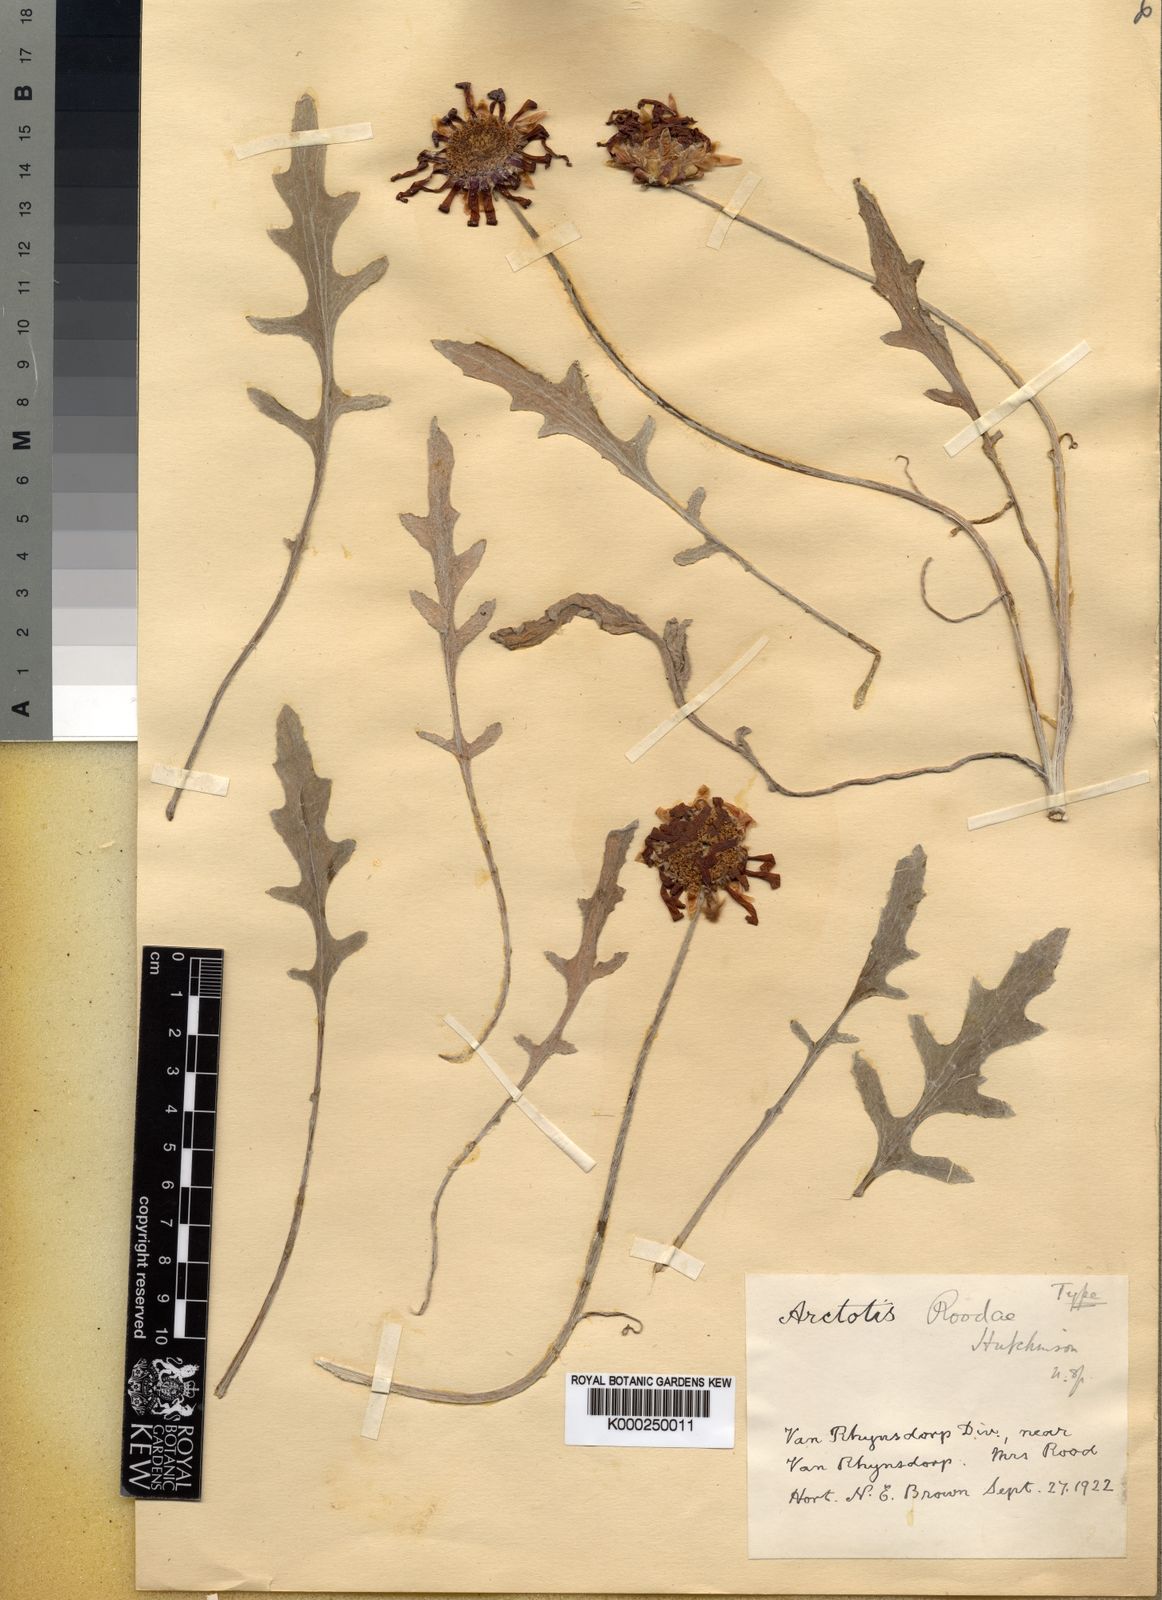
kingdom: Plantae
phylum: Tracheophyta
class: Magnoliopsida
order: Asterales
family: Asteraceae
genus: Arctotis
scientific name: Arctotis roodae
